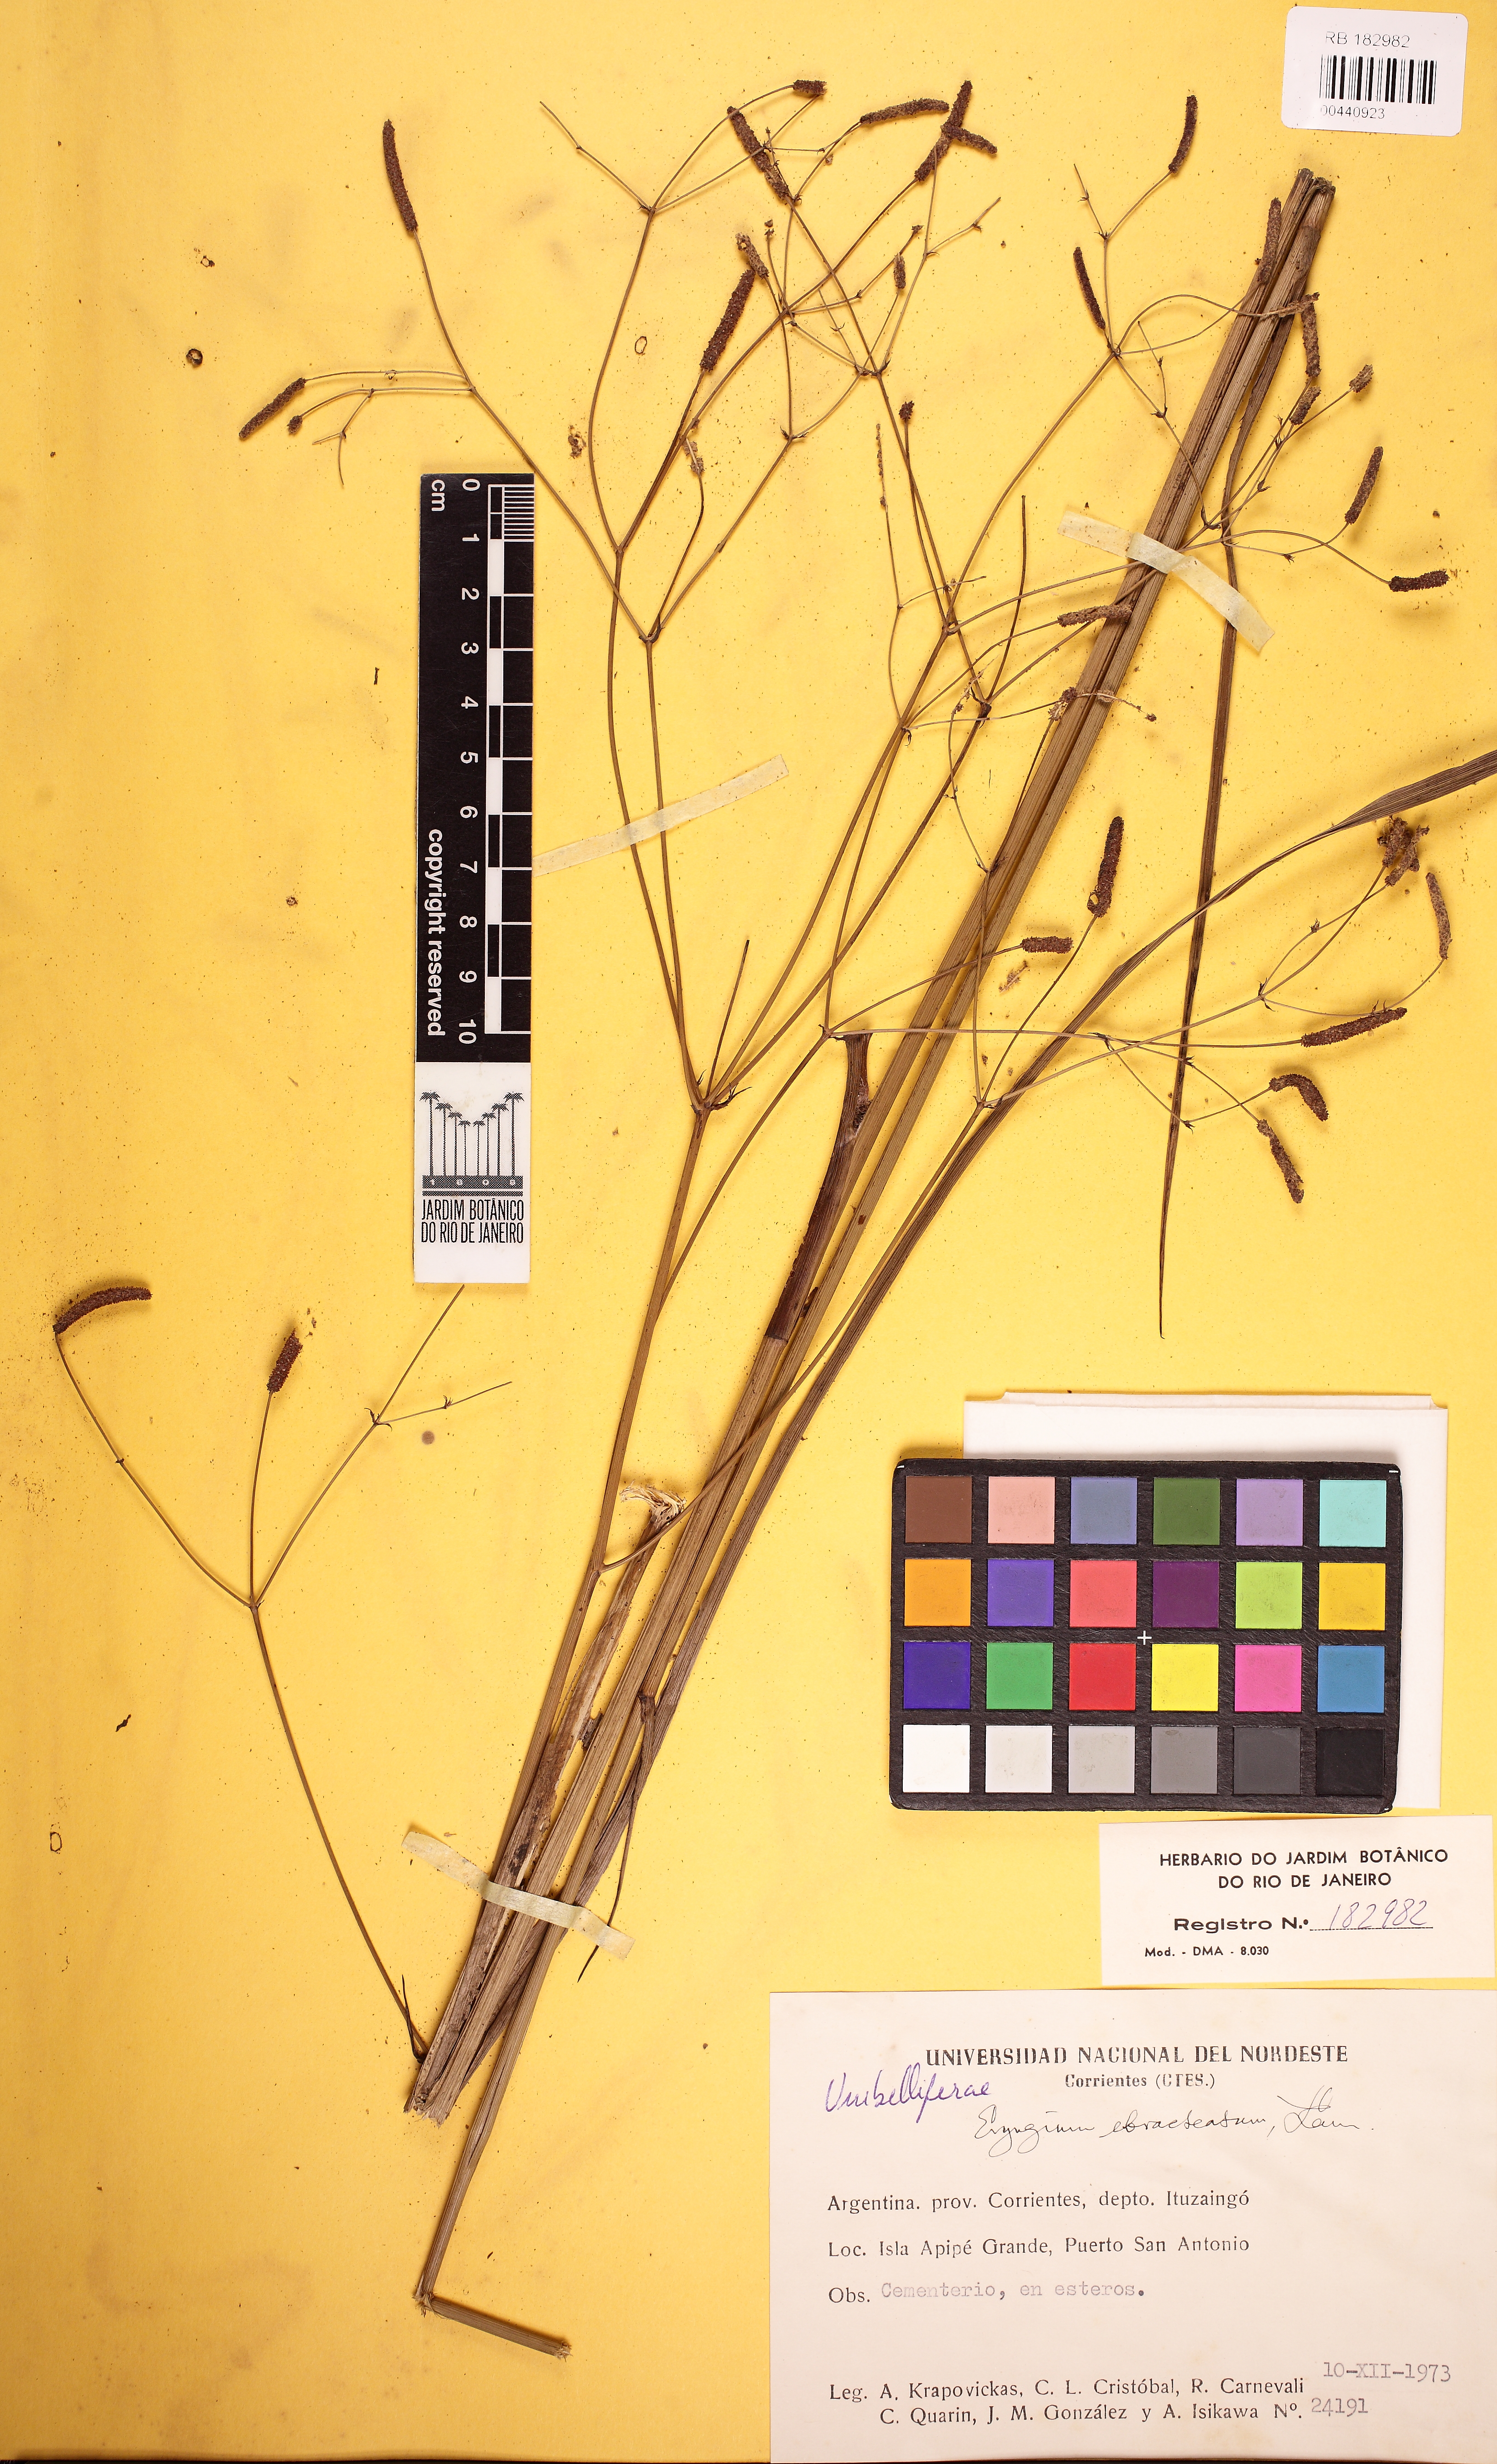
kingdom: Plantae
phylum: Tracheophyta
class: Magnoliopsida
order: Apiales
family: Apiaceae
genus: Eryngium
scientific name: Eryngium ebracteatum
